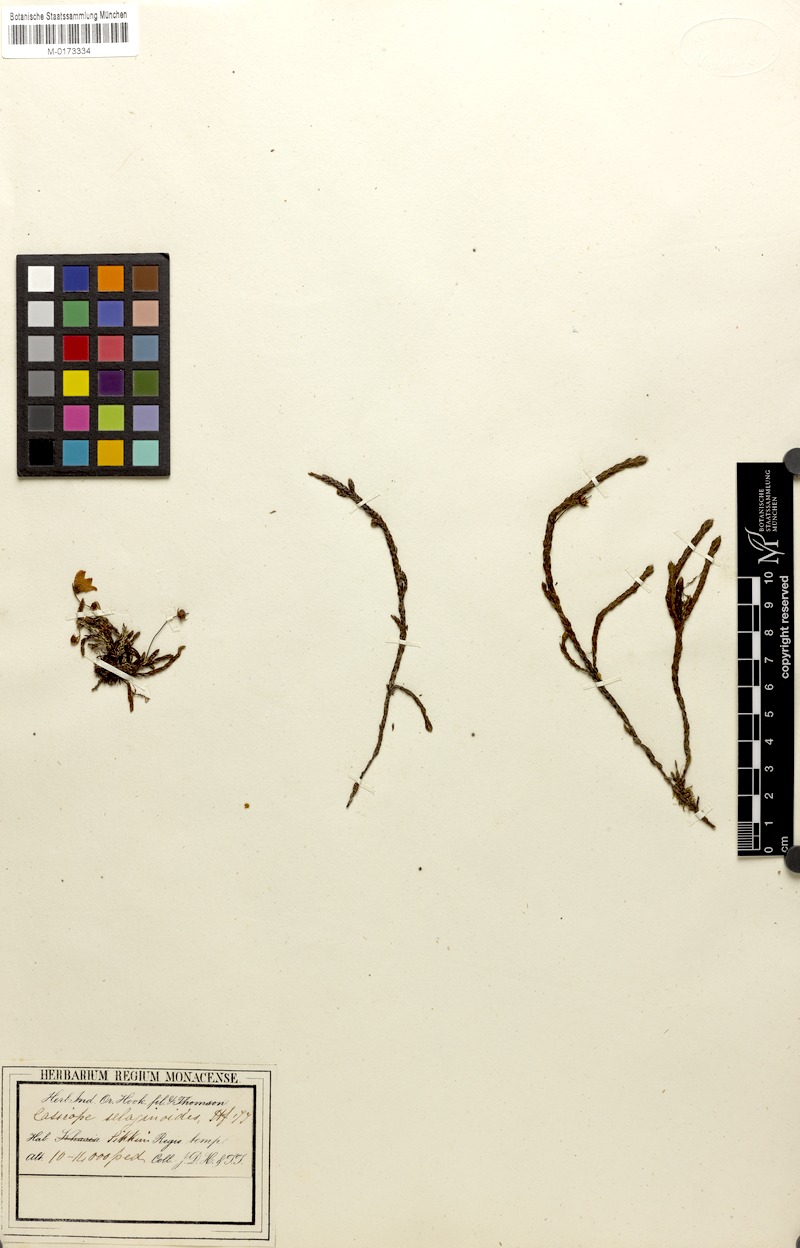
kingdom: Plantae
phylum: Tracheophyta
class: Magnoliopsida
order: Ericales
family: Ericaceae
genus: Cassiope
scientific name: Cassiope selaginoides
